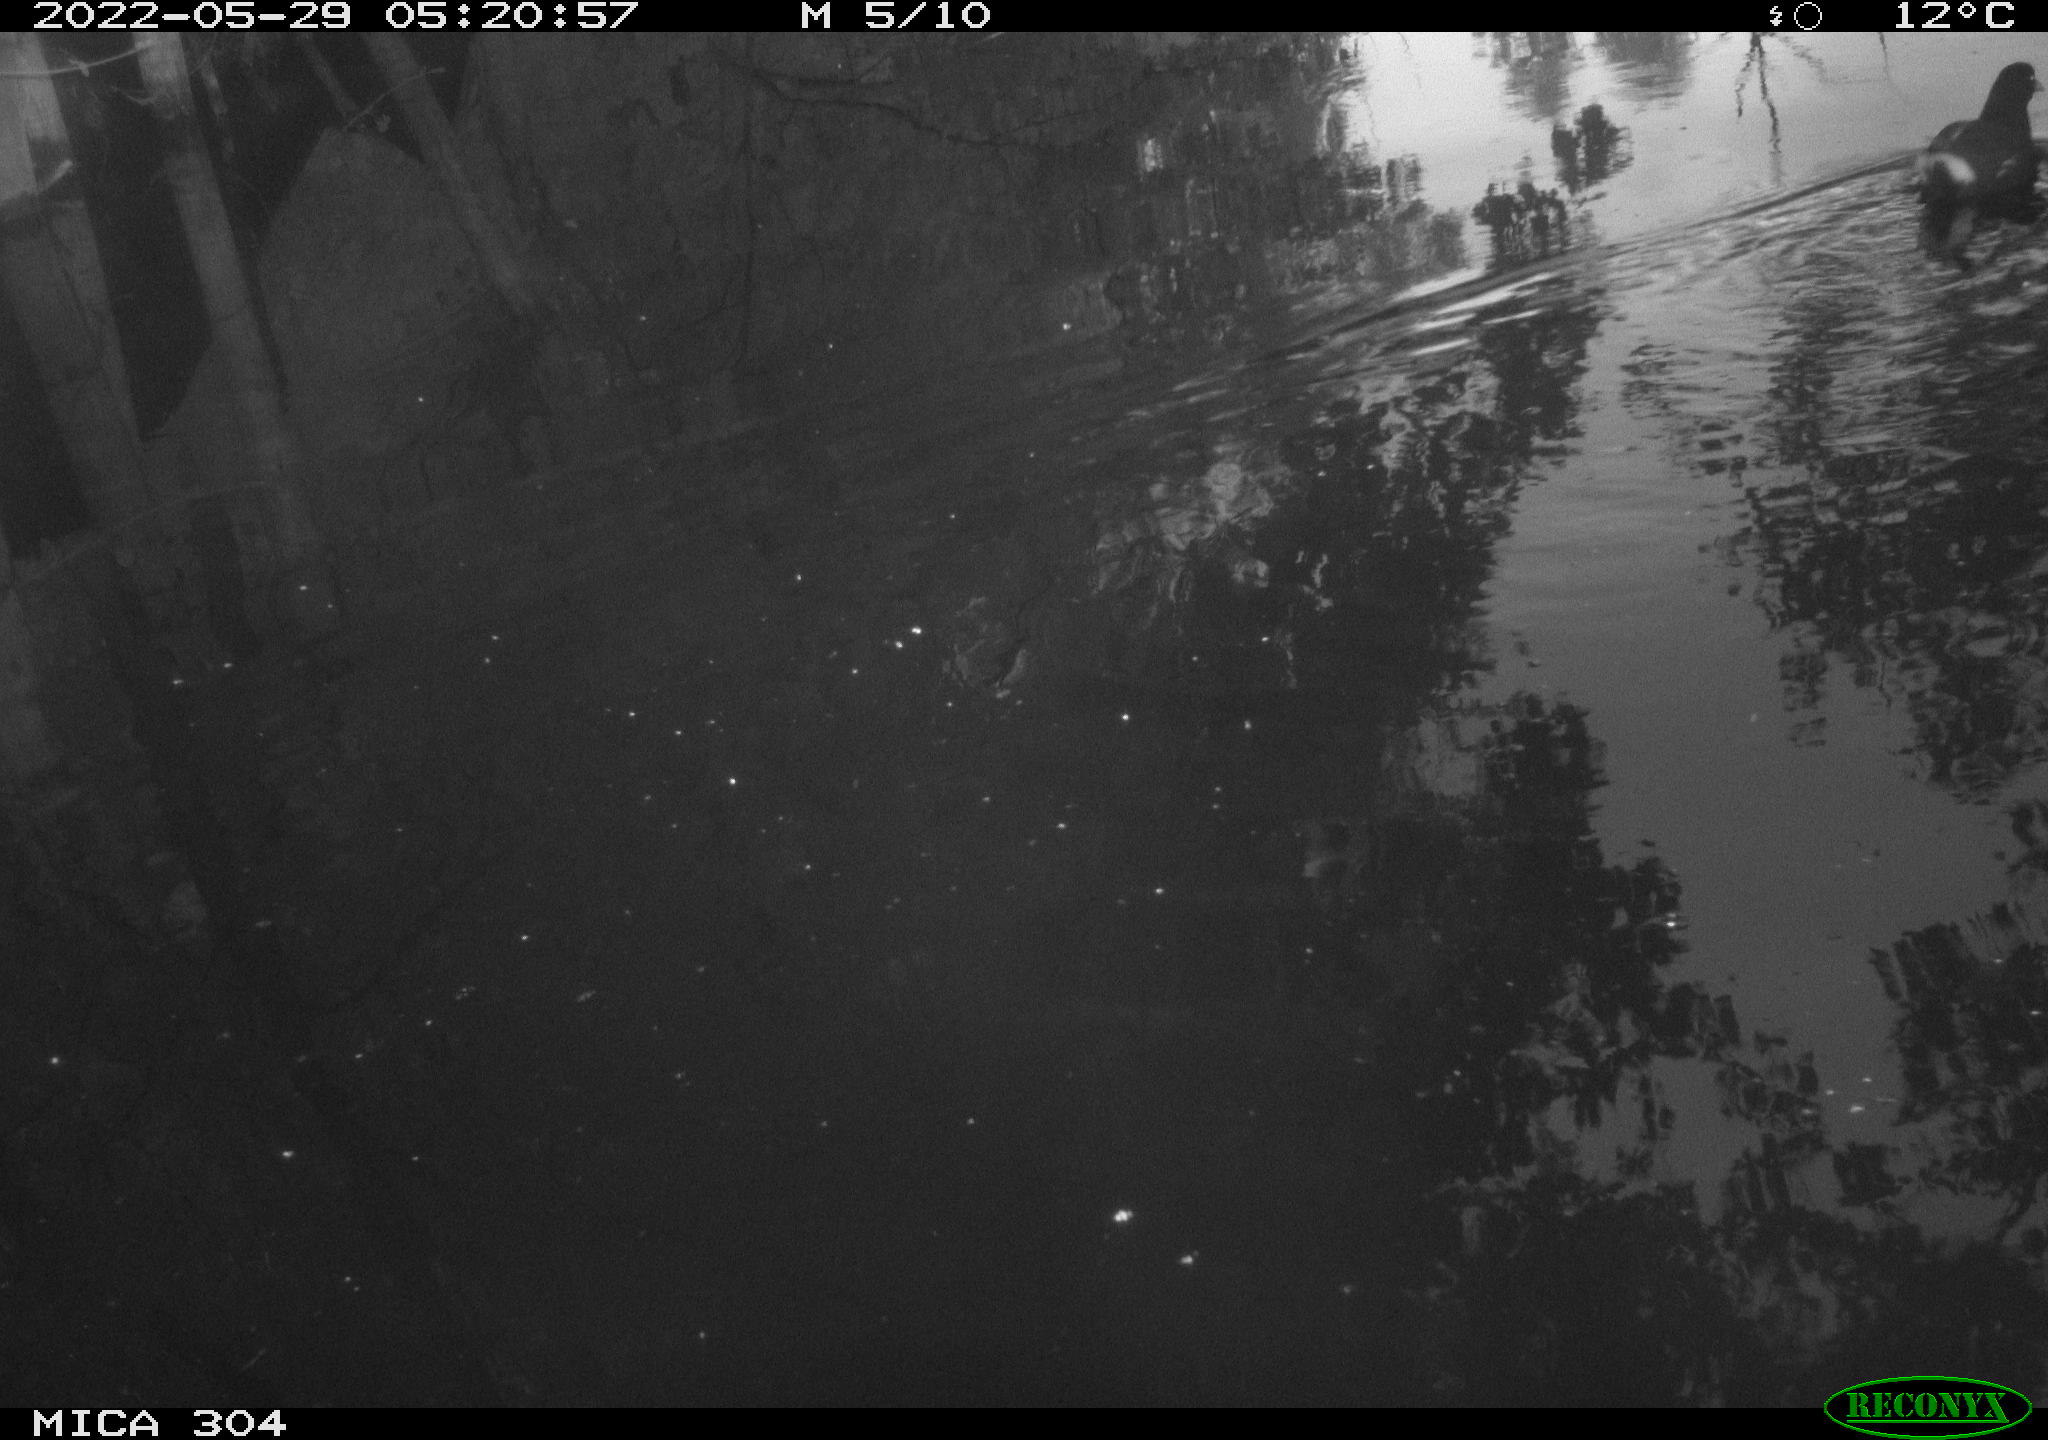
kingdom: Animalia
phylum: Chordata
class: Aves
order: Gruiformes
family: Rallidae
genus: Gallinula
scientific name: Gallinula chloropus
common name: Common moorhen
